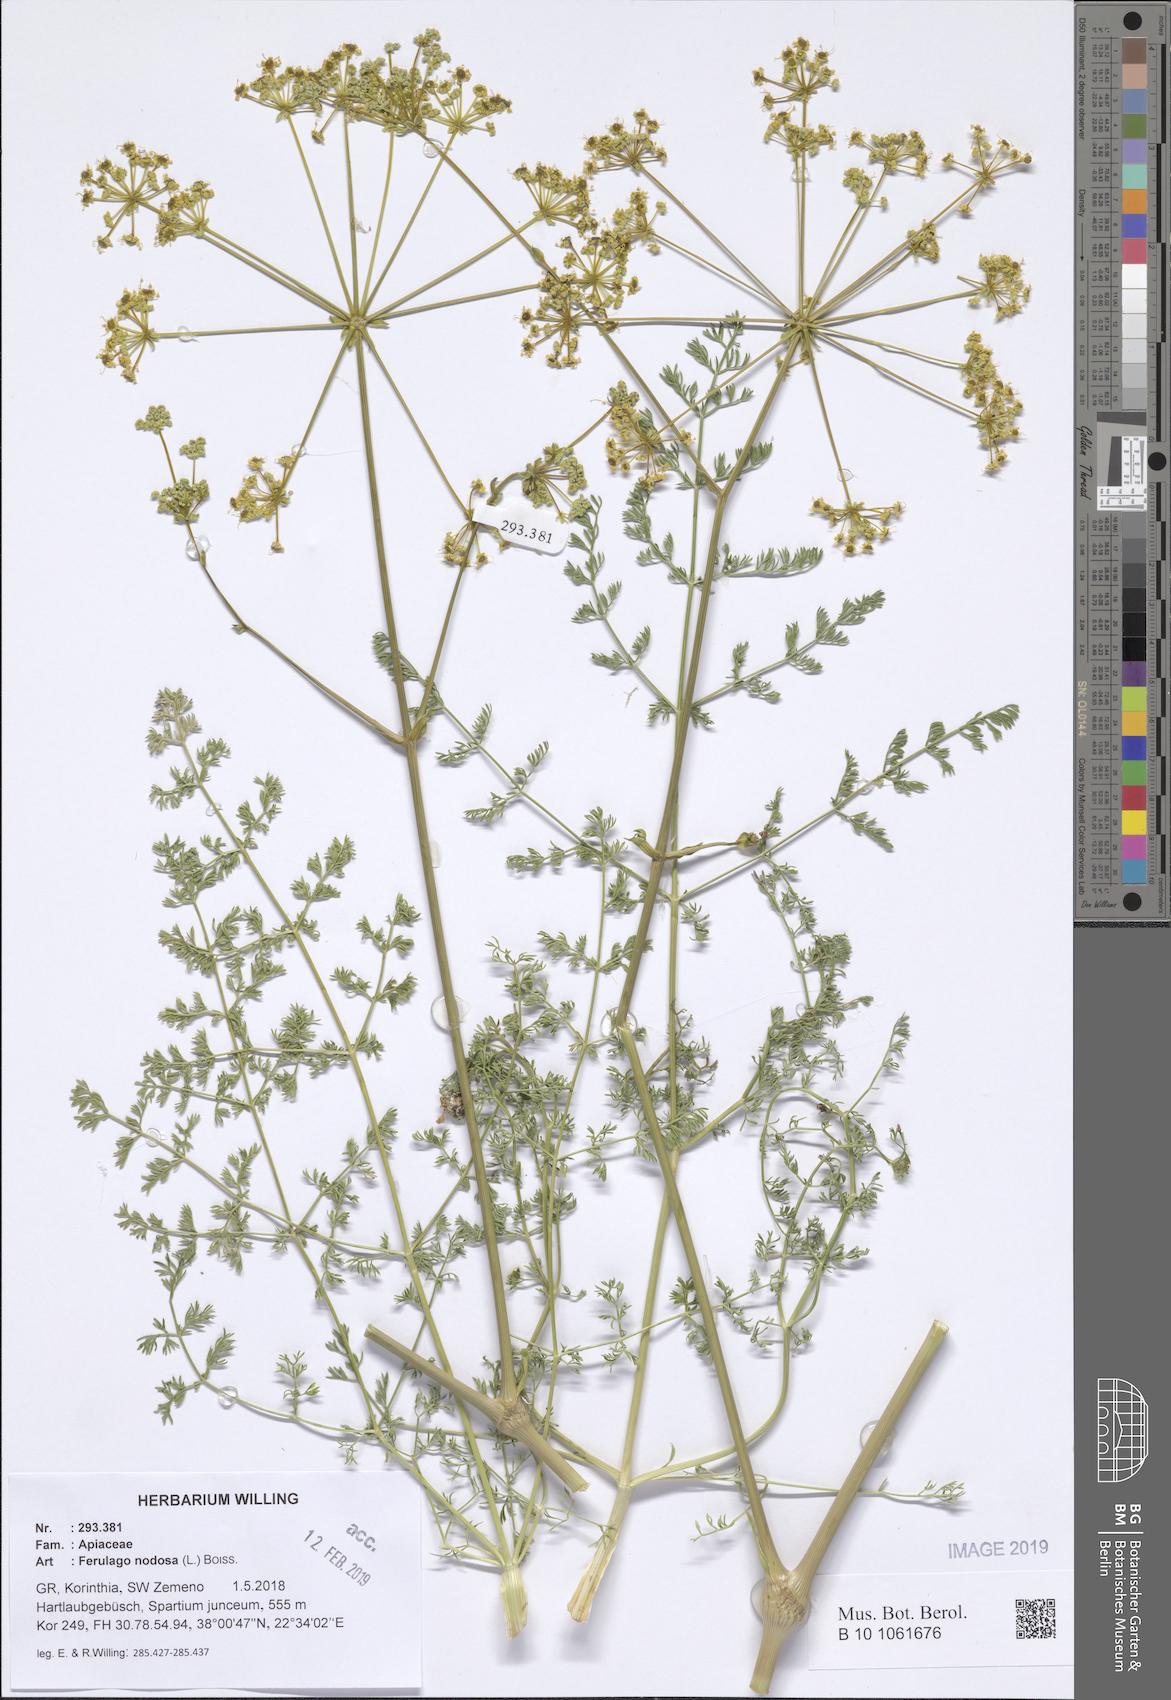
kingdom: Plantae
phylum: Tracheophyta
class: Magnoliopsida
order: Apiales
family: Apiaceae
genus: Ferulago
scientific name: Ferulago nodosa
